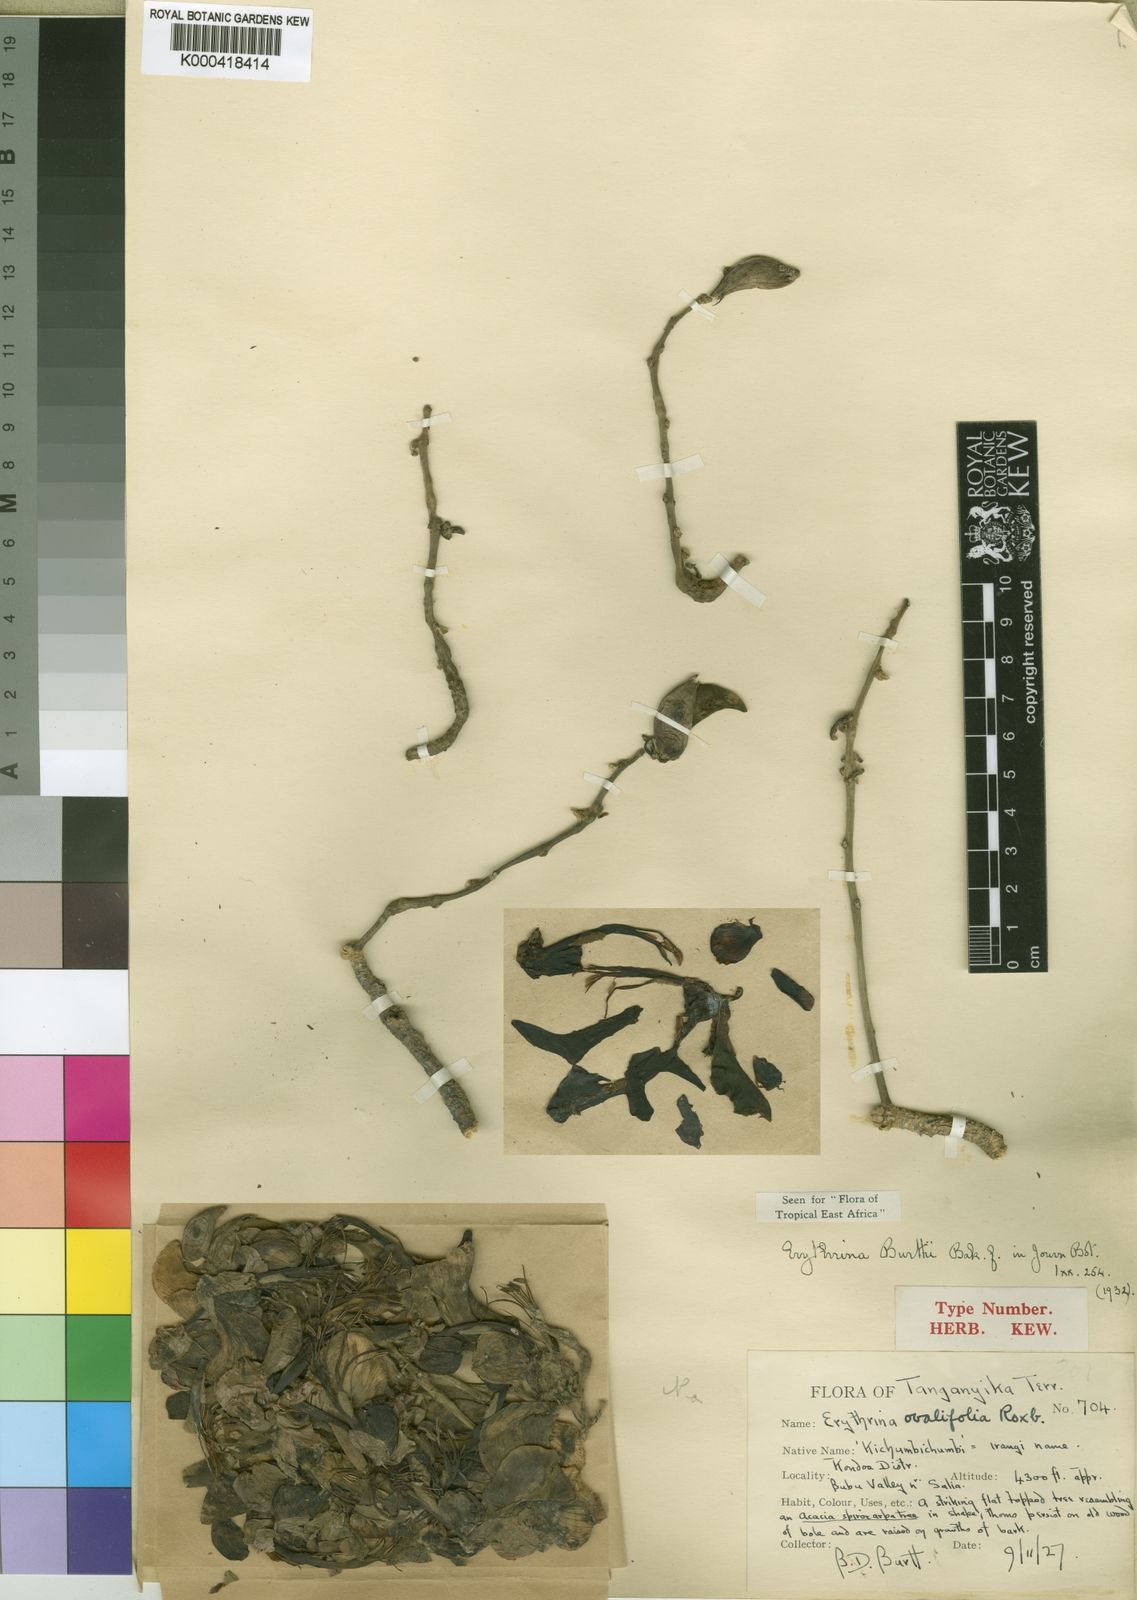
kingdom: Plantae
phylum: Tracheophyta
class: Magnoliopsida
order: Fabales
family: Fabaceae
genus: Erythrina
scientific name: Erythrina burttii
